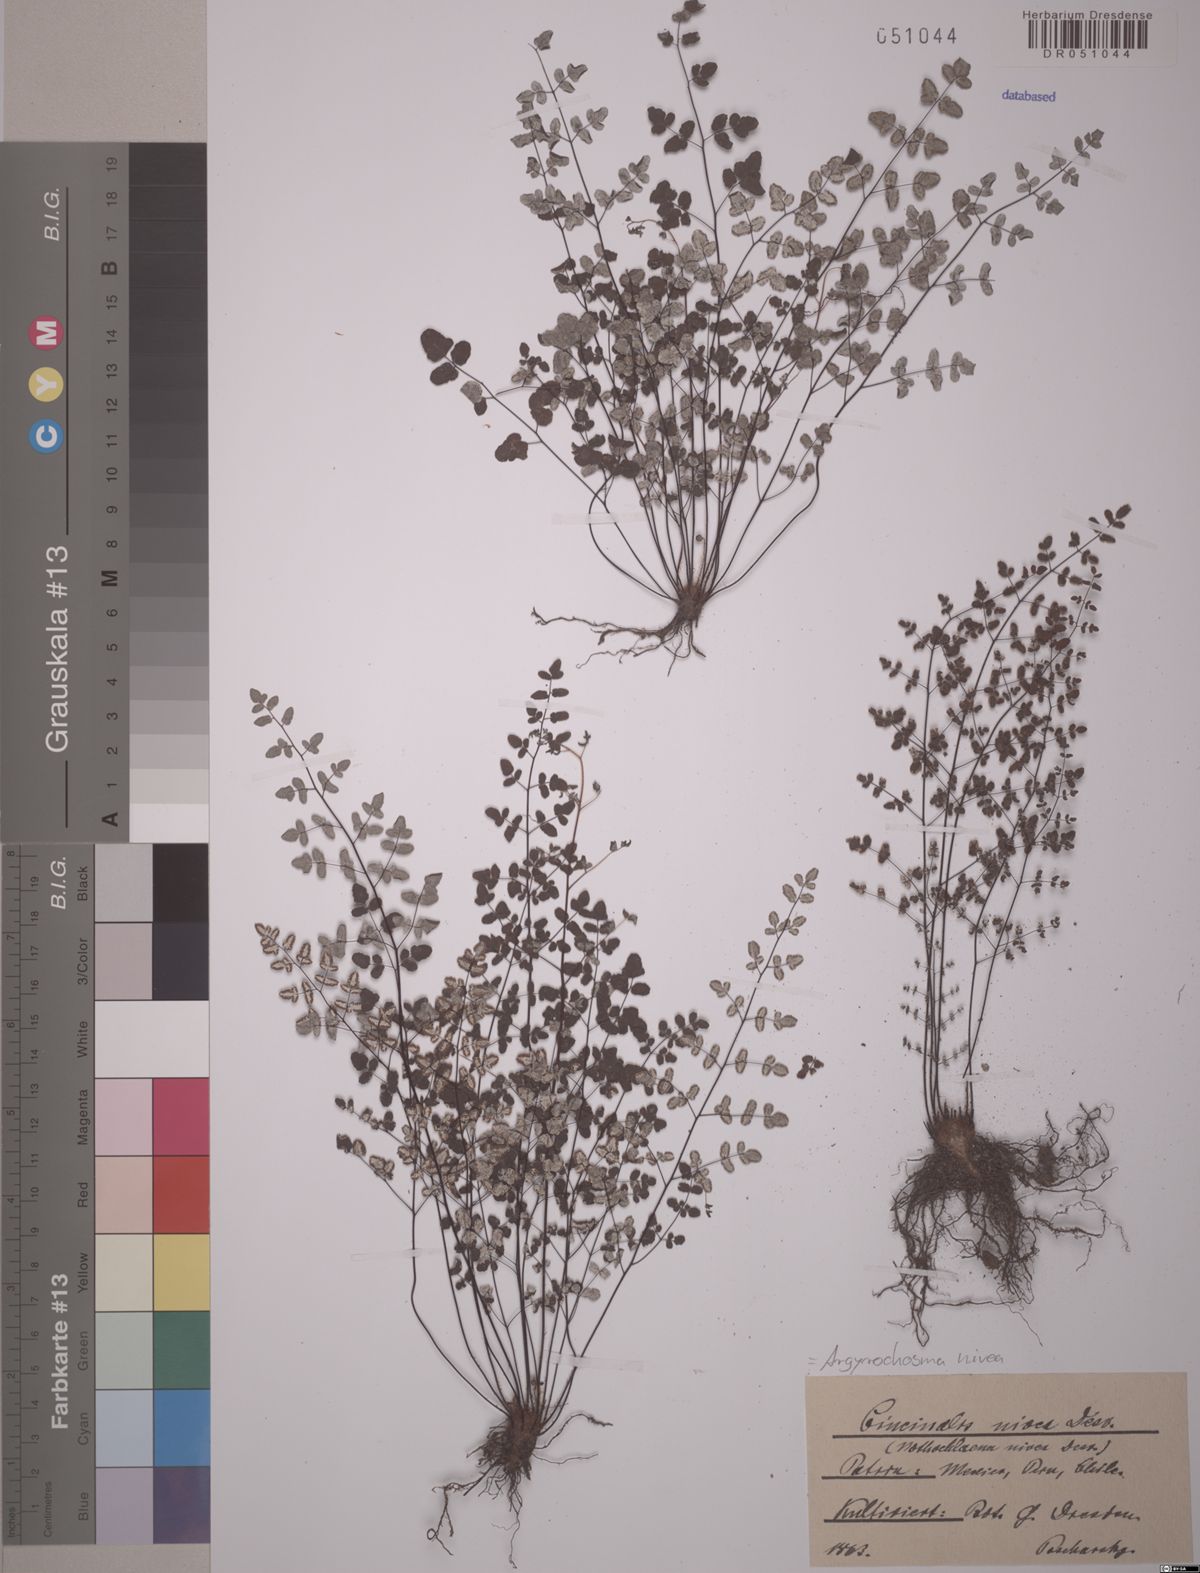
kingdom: Plantae
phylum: Tracheophyta
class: Polypodiopsida
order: Polypodiales
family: Pteridaceae
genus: Argyrochosma
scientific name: Argyrochosma nivea
